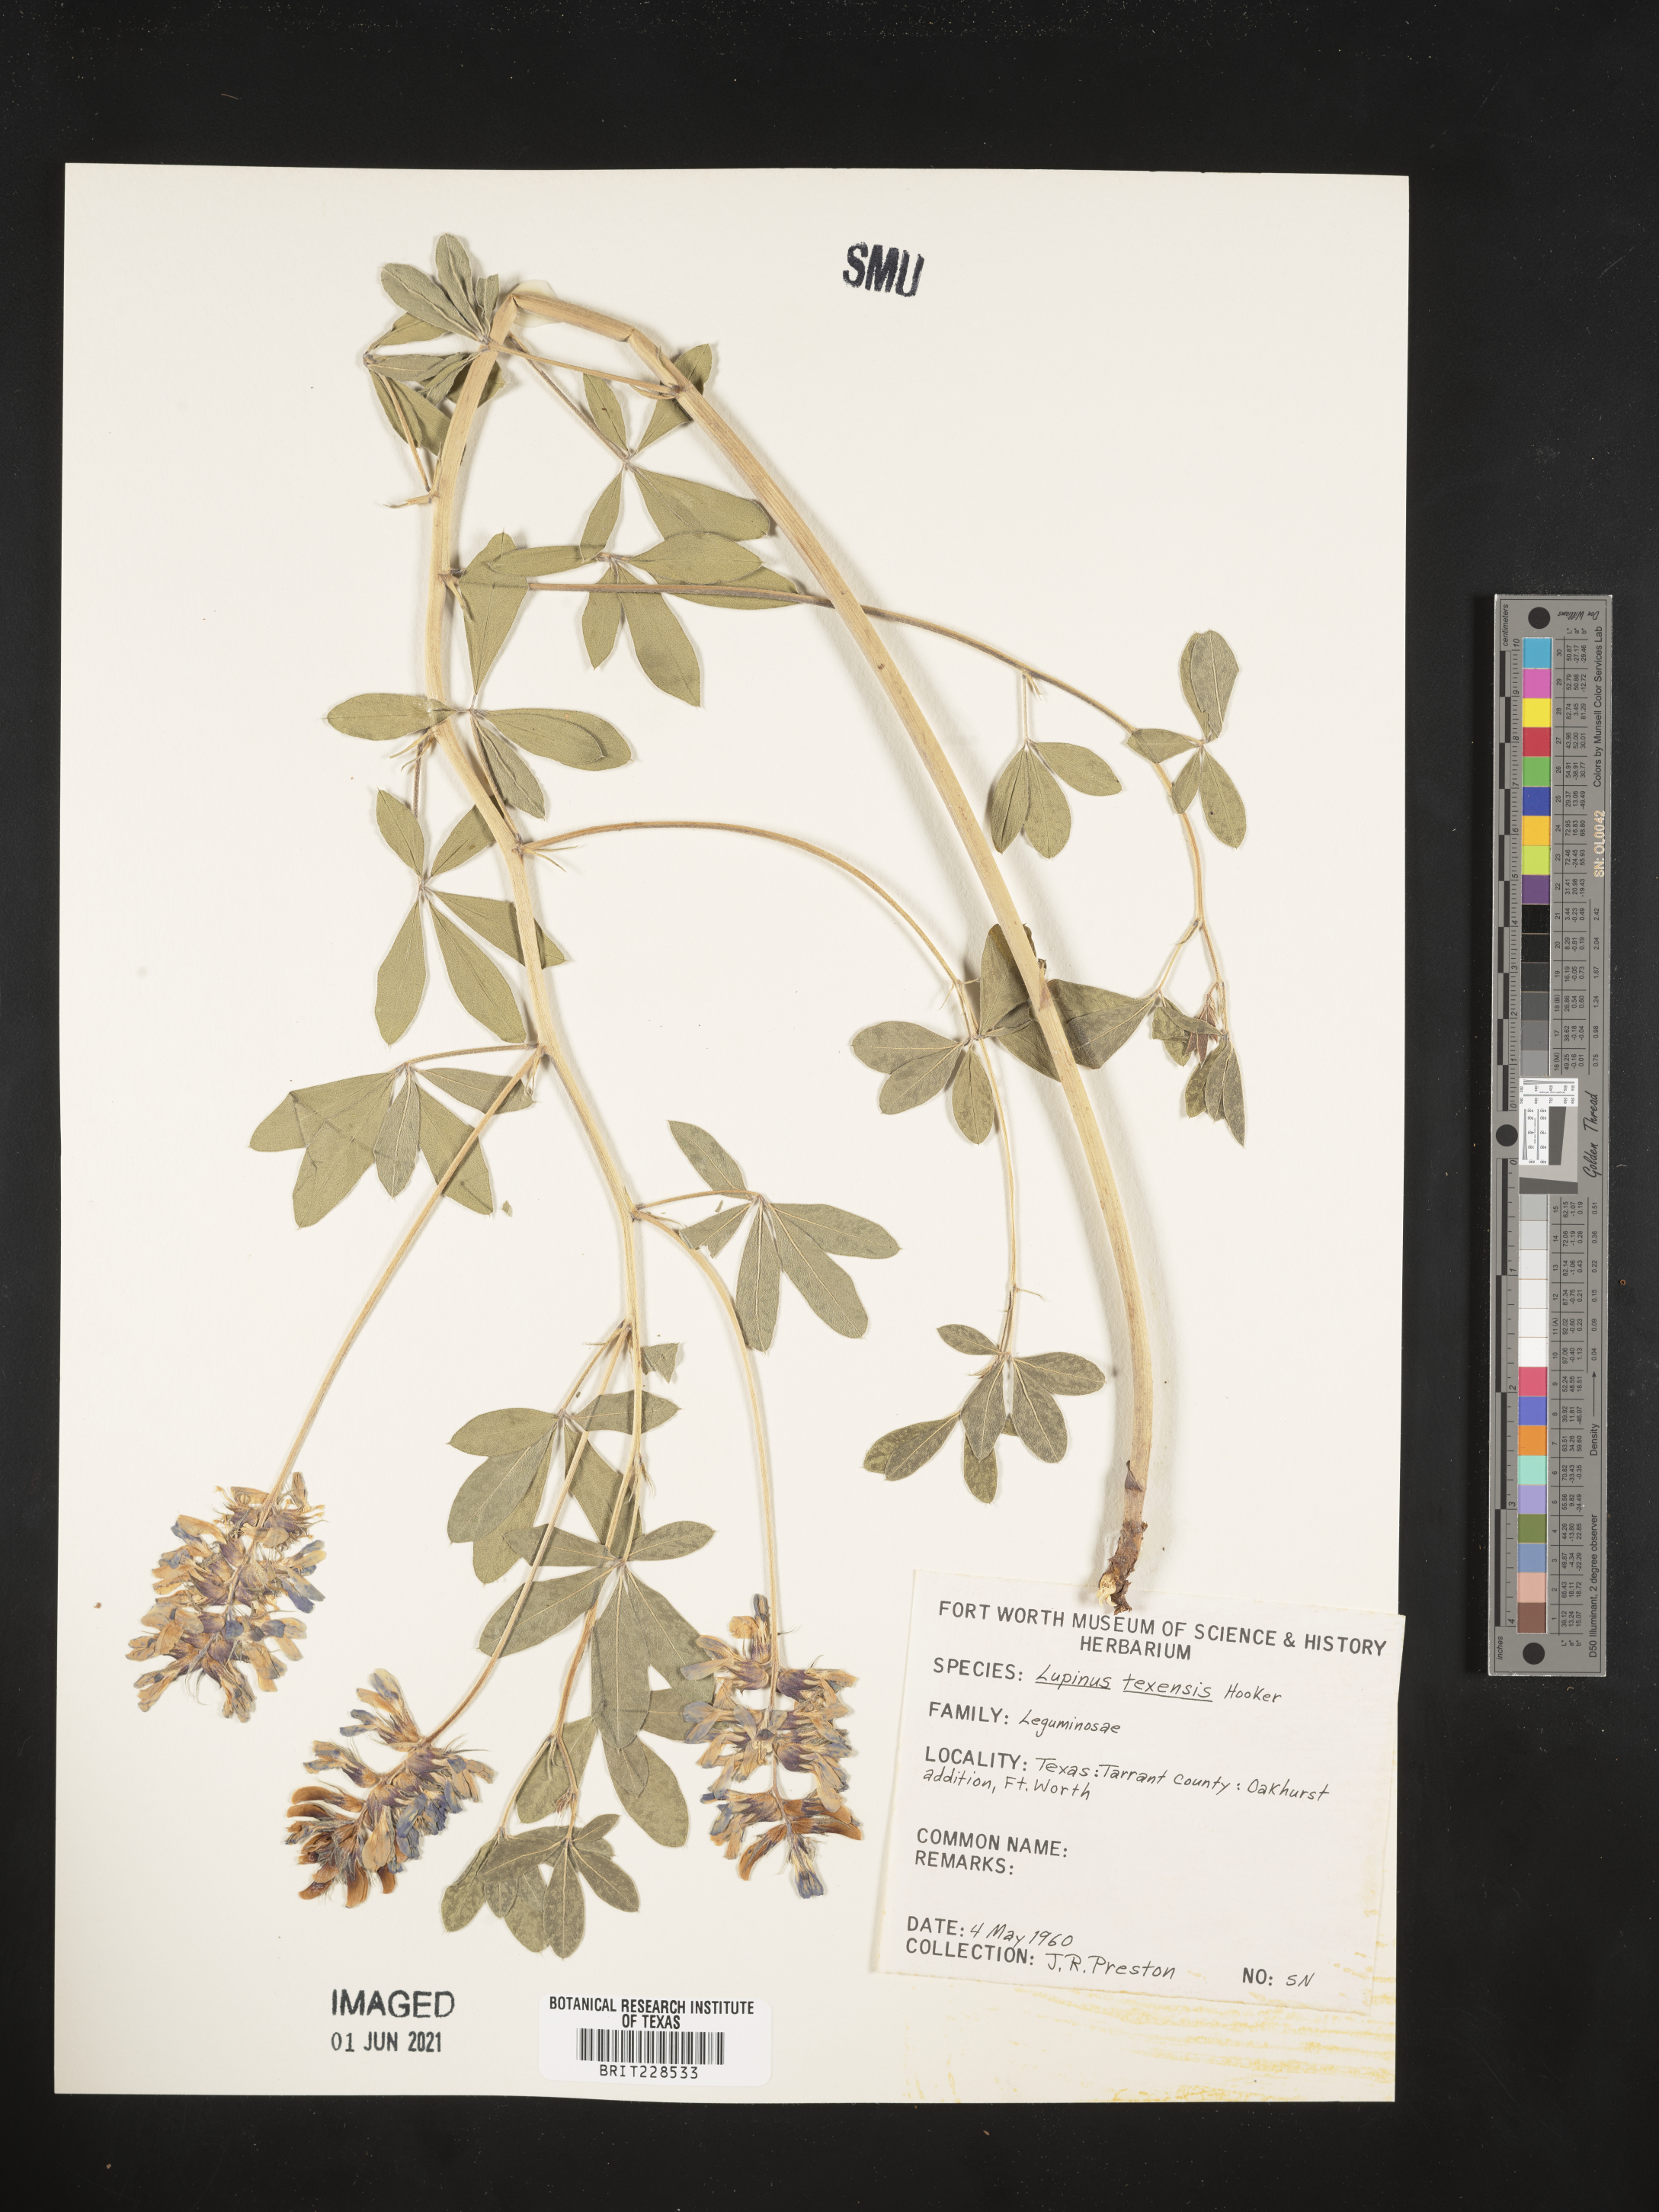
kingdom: Plantae
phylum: Tracheophyta
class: Magnoliopsida
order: Fabales
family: Fabaceae
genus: Lupinus
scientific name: Lupinus texensis
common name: Texas bluebonnet
